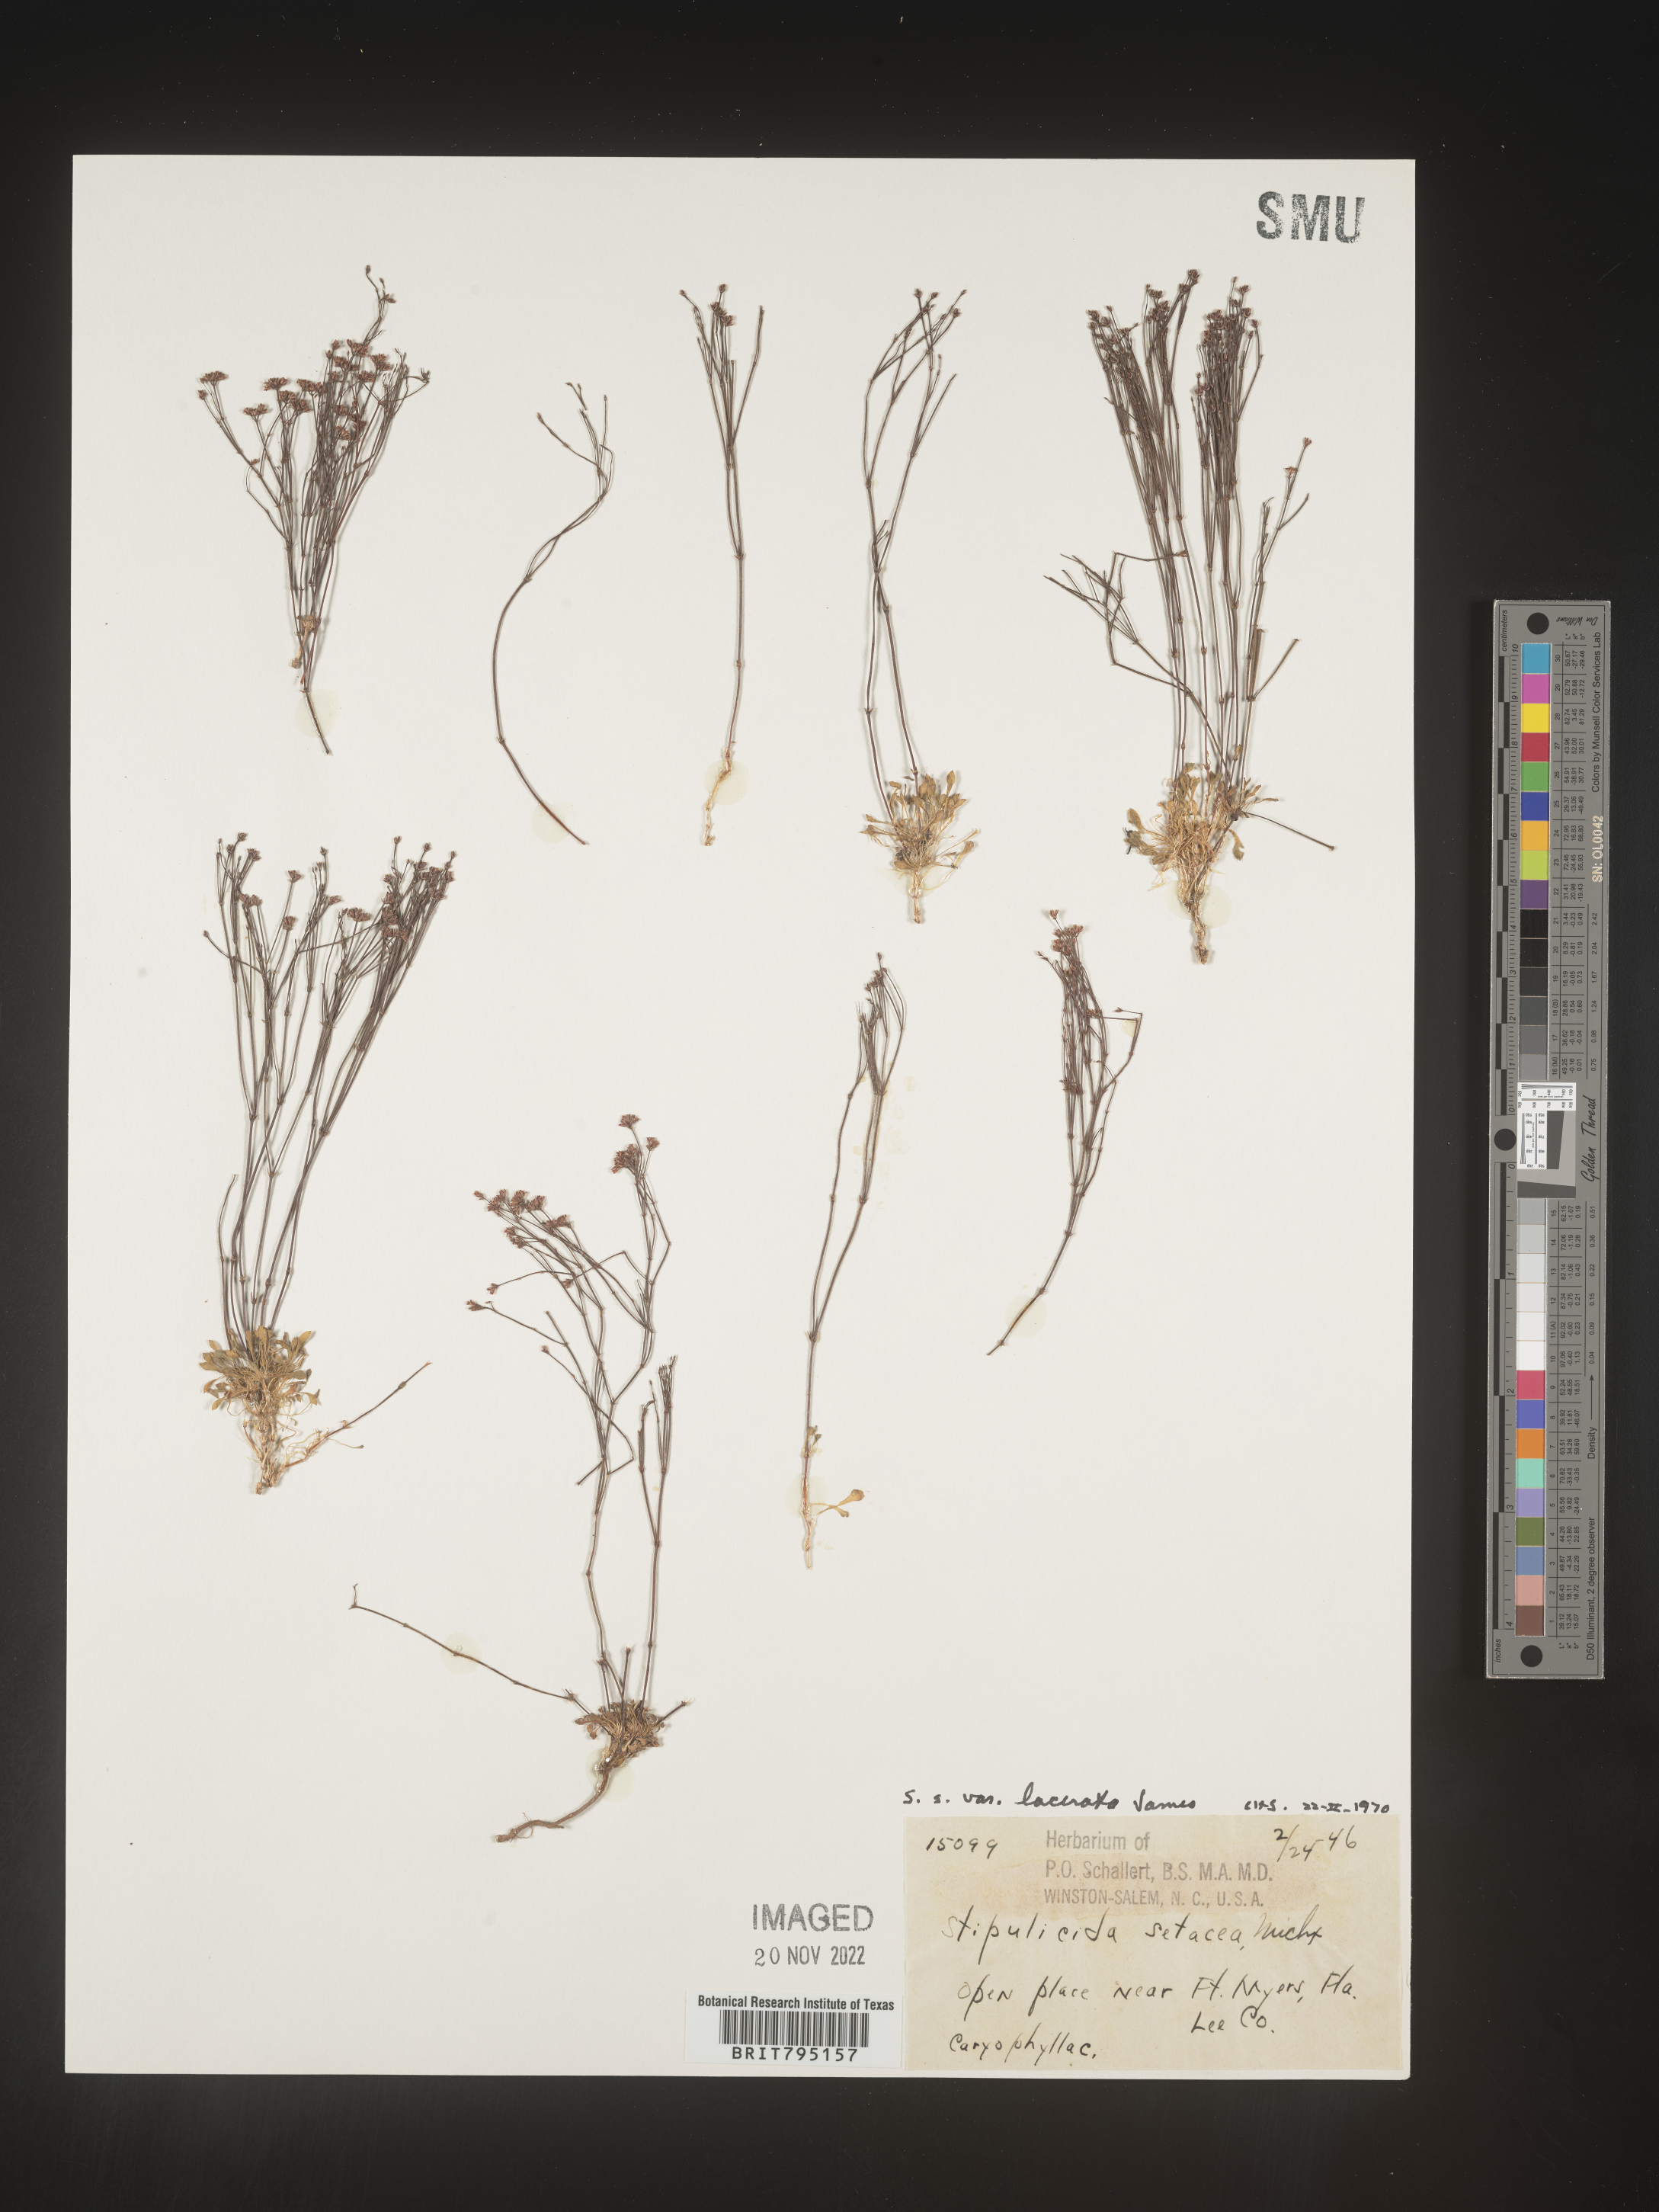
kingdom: Plantae
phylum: Tracheophyta
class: Magnoliopsida
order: Caryophyllales
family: Caryophyllaceae
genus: Stipulicida
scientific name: Stipulicida
